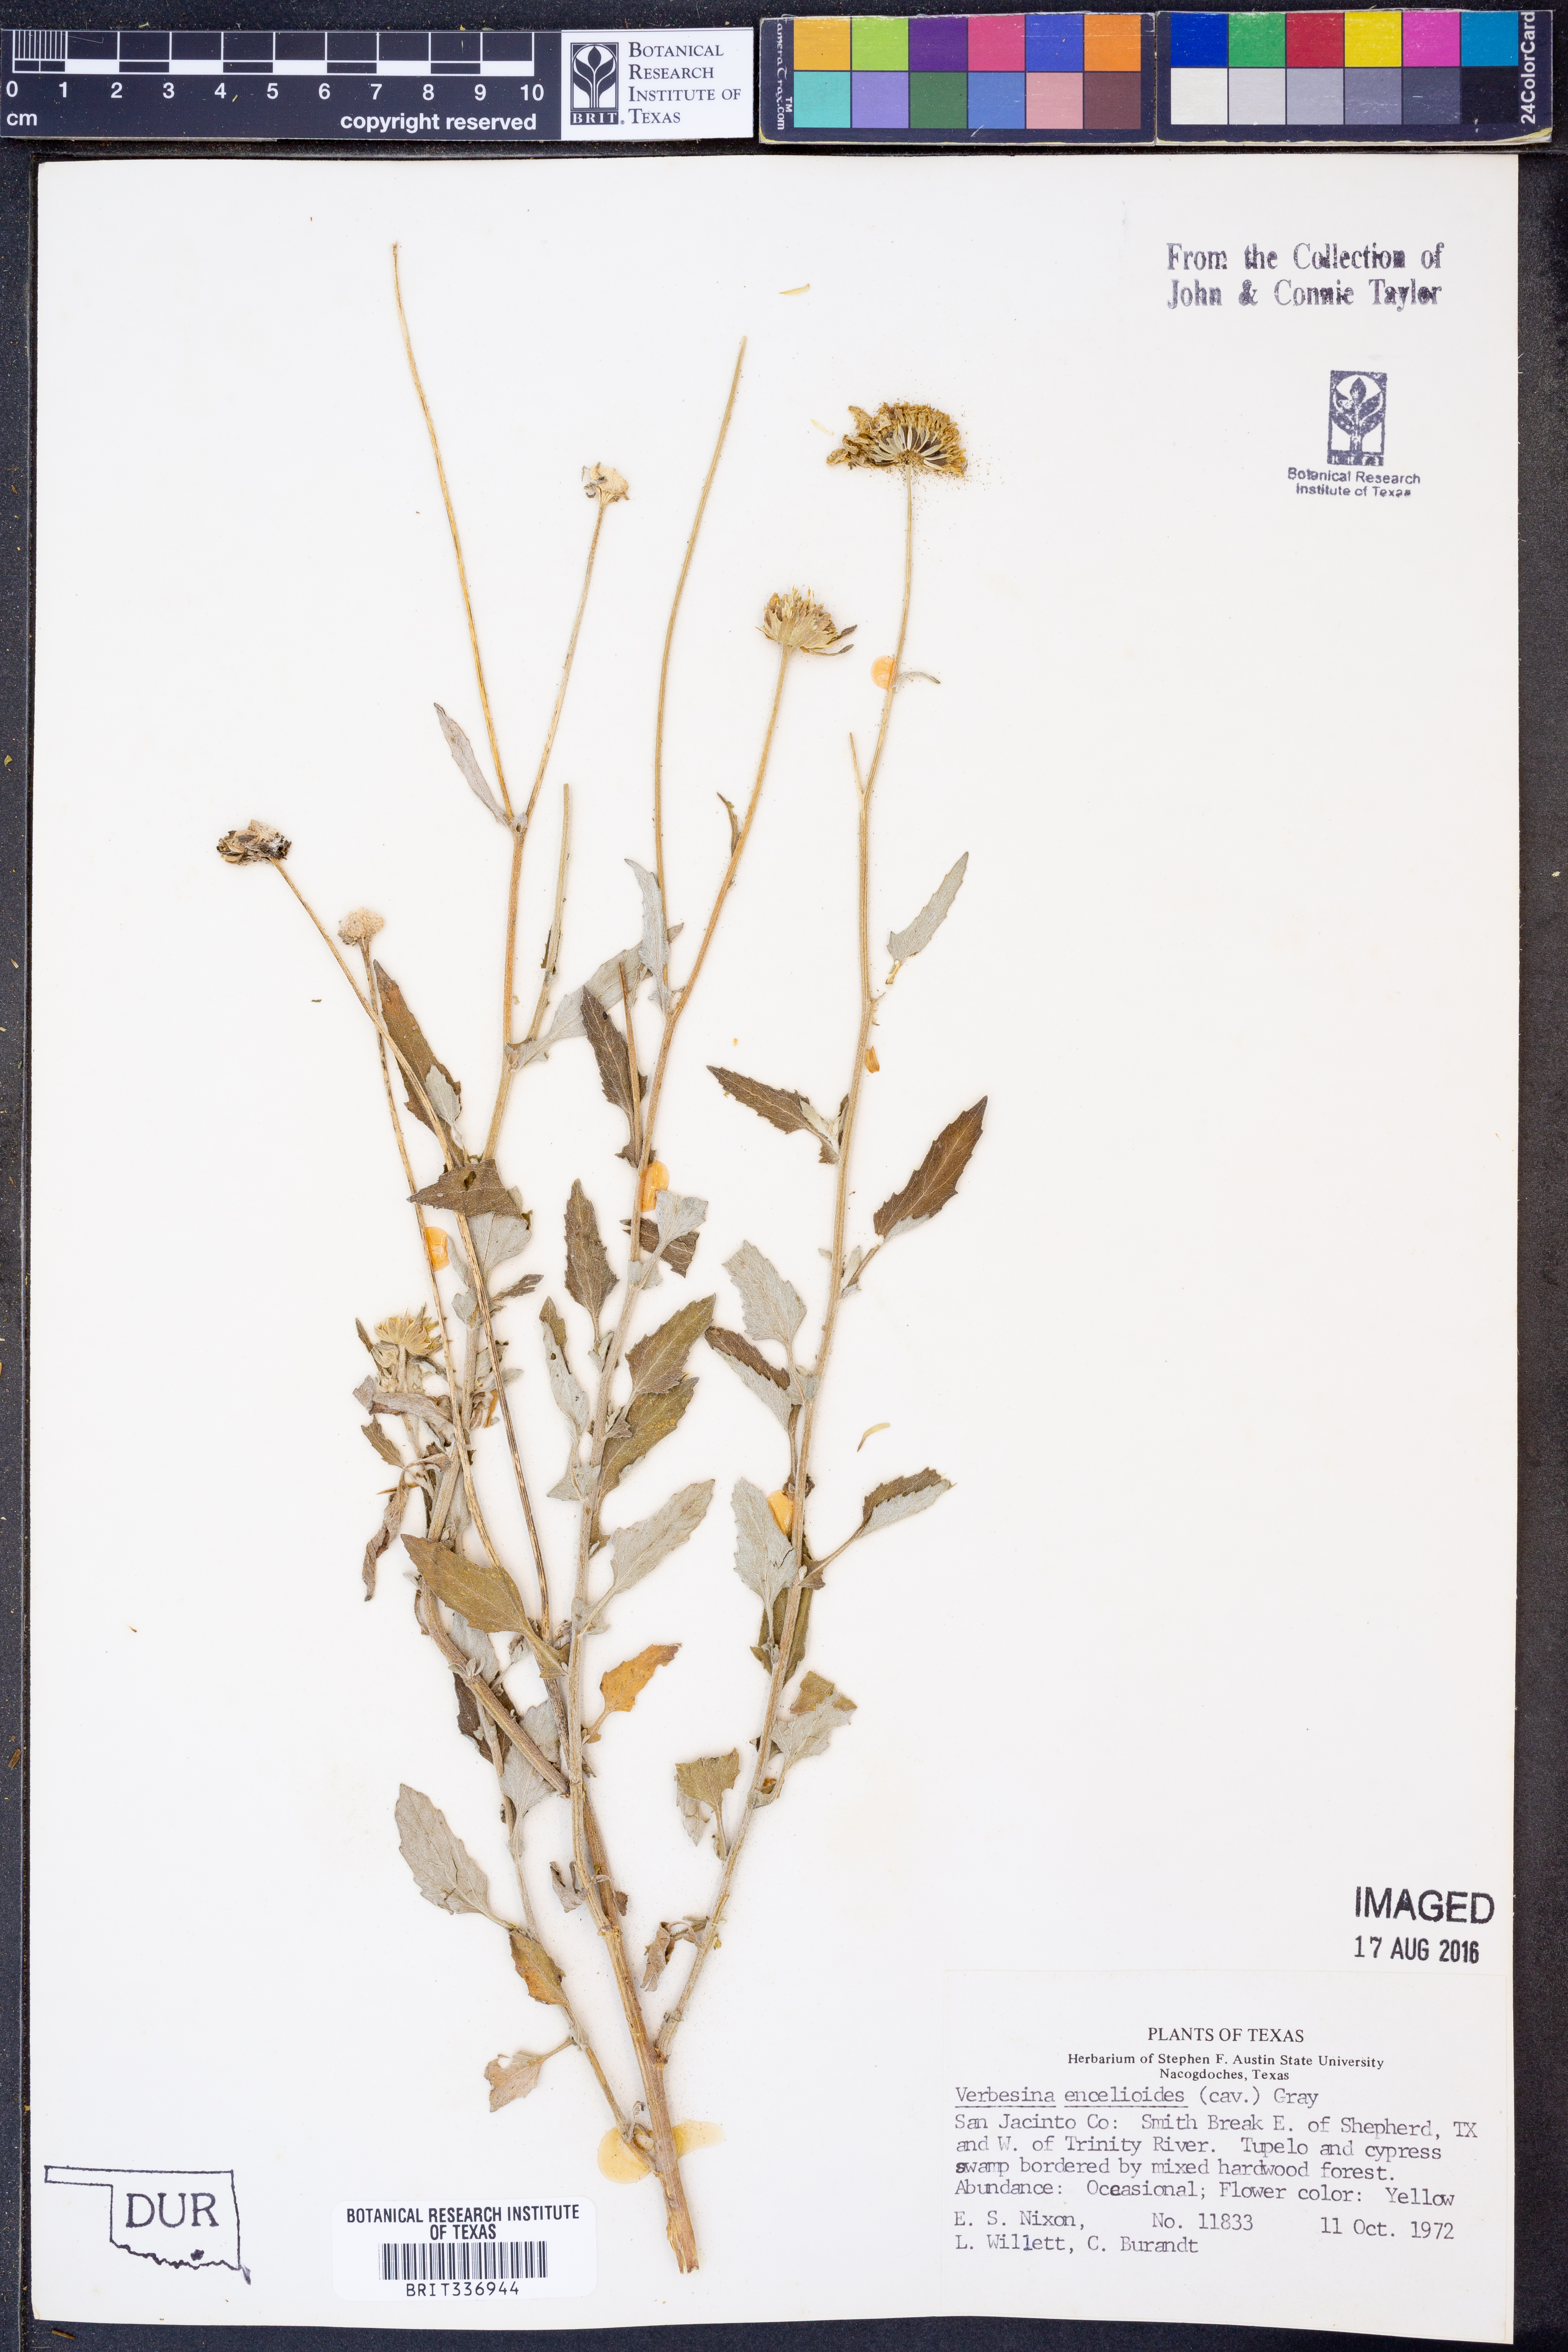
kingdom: Plantae
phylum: Tracheophyta
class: Magnoliopsida
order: Asterales
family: Asteraceae
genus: Verbesina
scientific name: Verbesina encelioides
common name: Golden crownbeard
